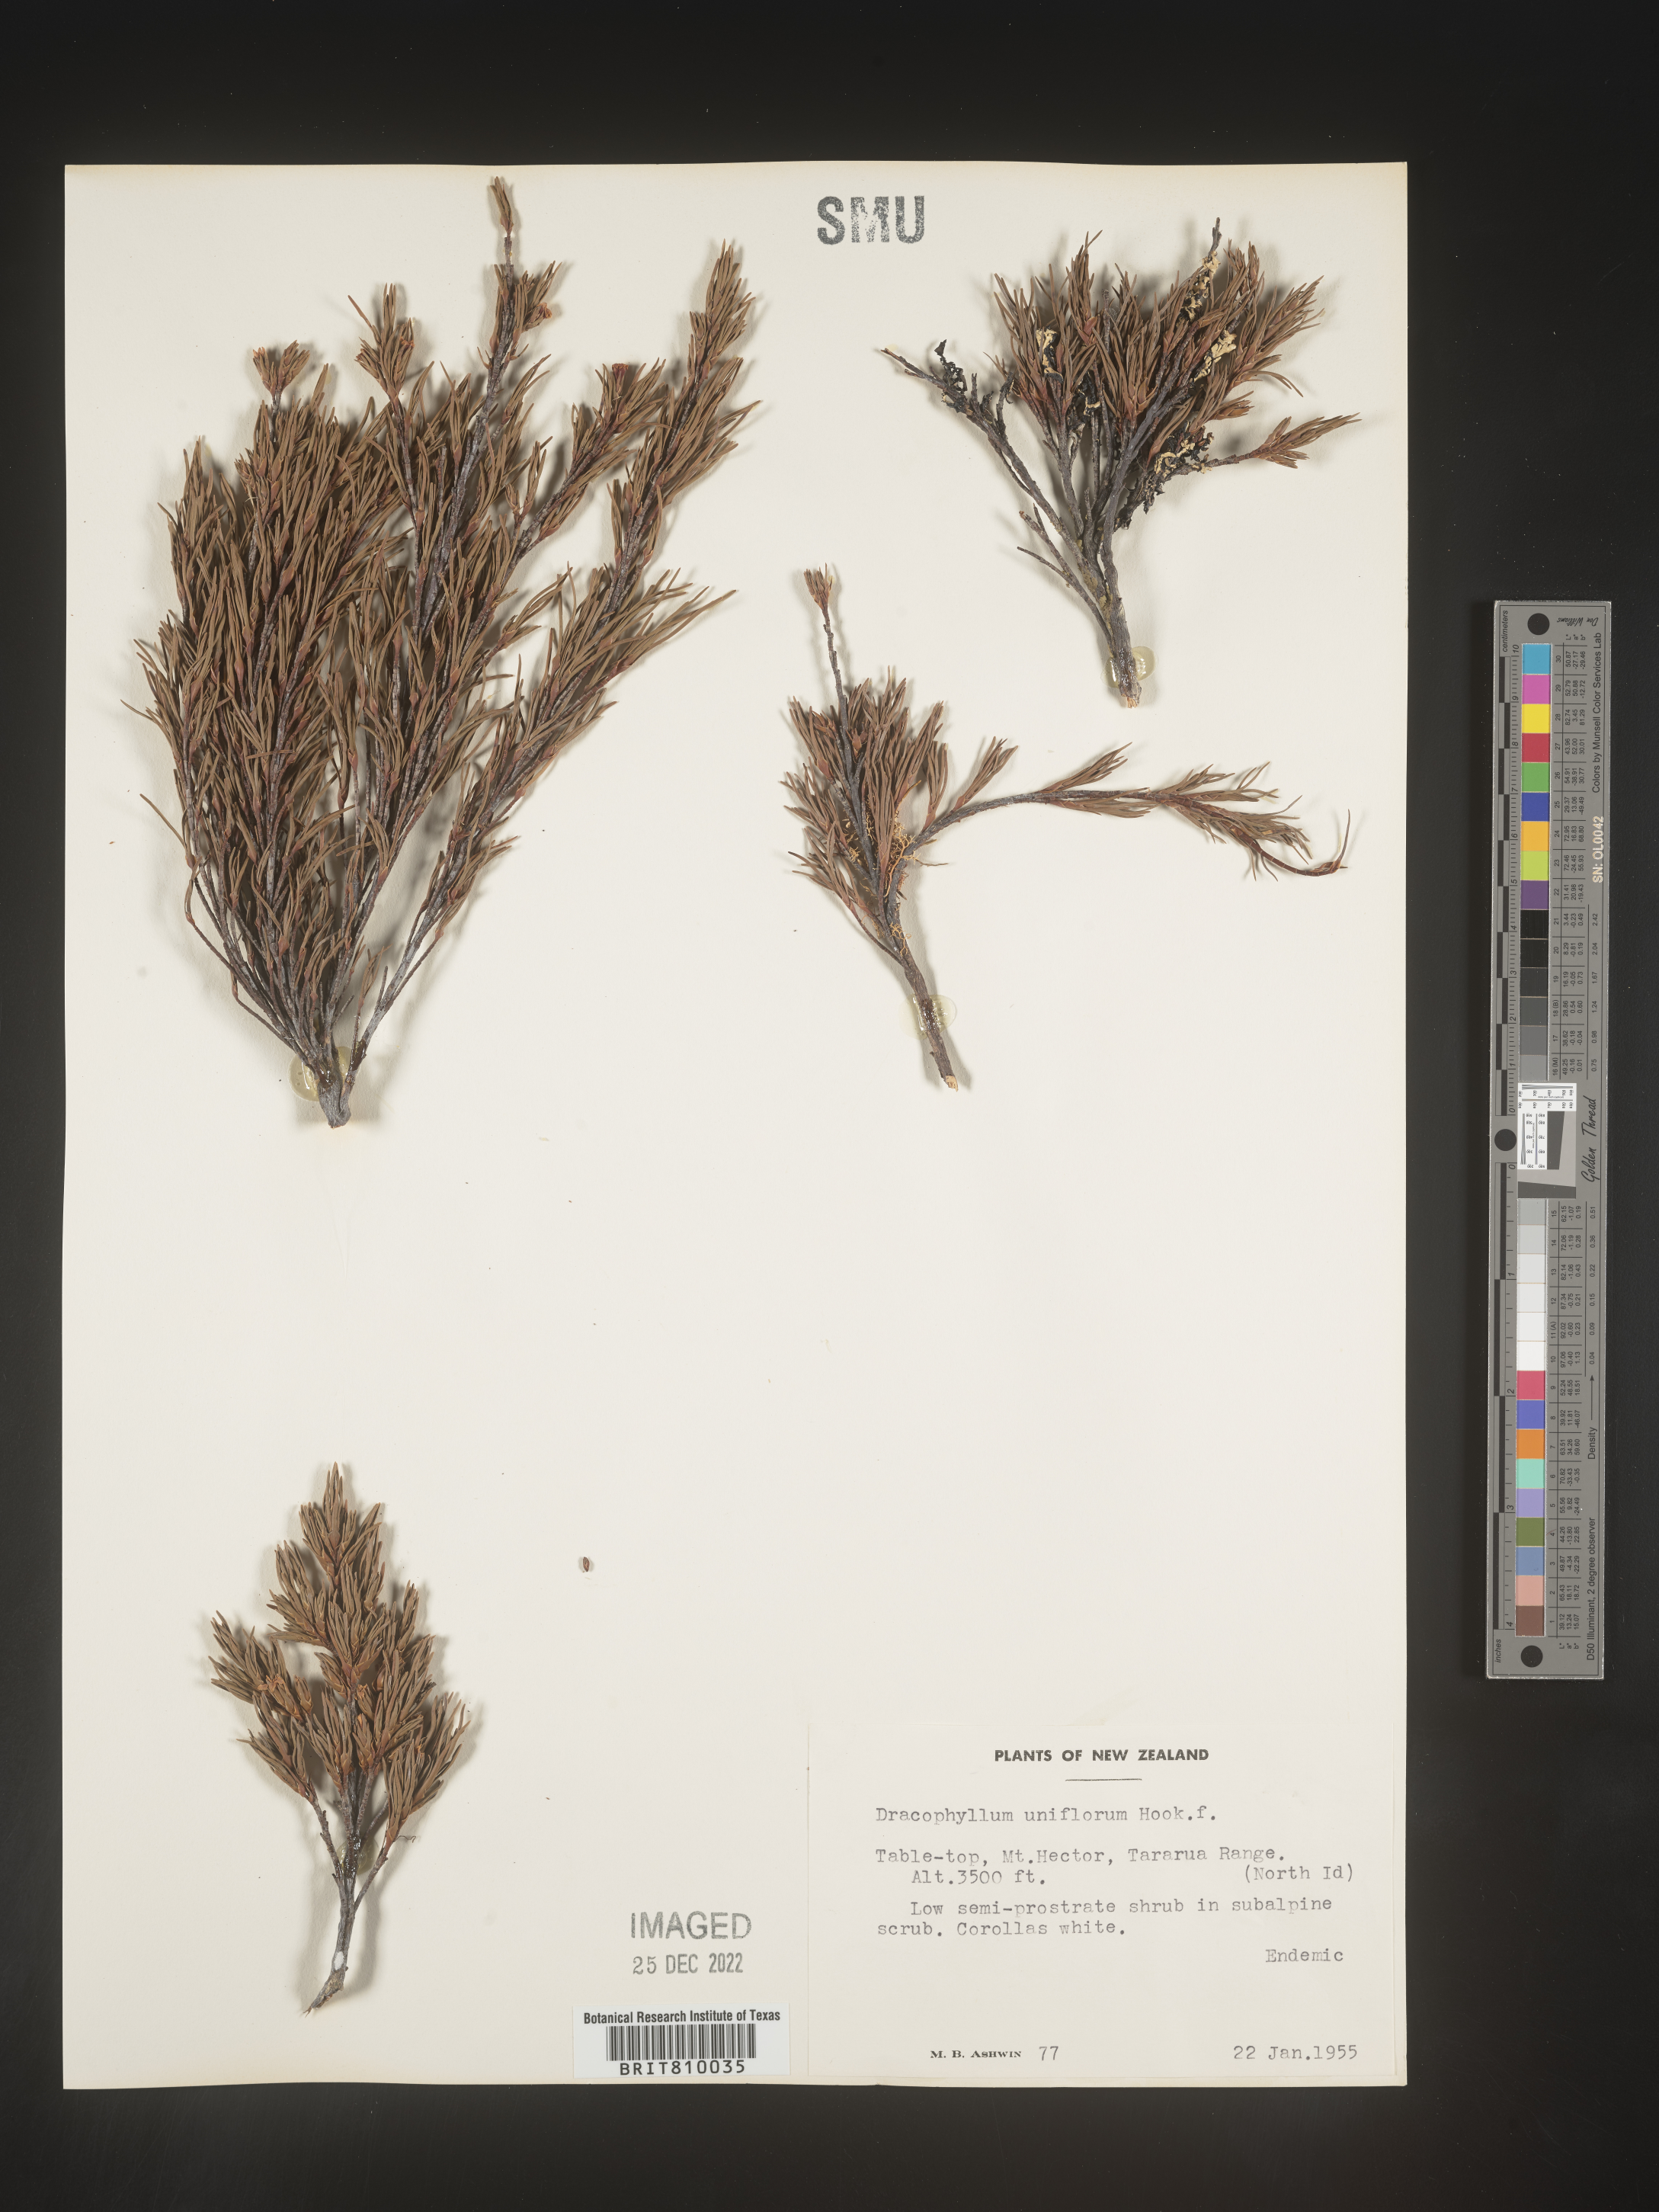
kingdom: Plantae
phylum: Tracheophyta
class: Magnoliopsida
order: Ericales
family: Ericaceae
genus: Dracophyllum
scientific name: Dracophyllum
